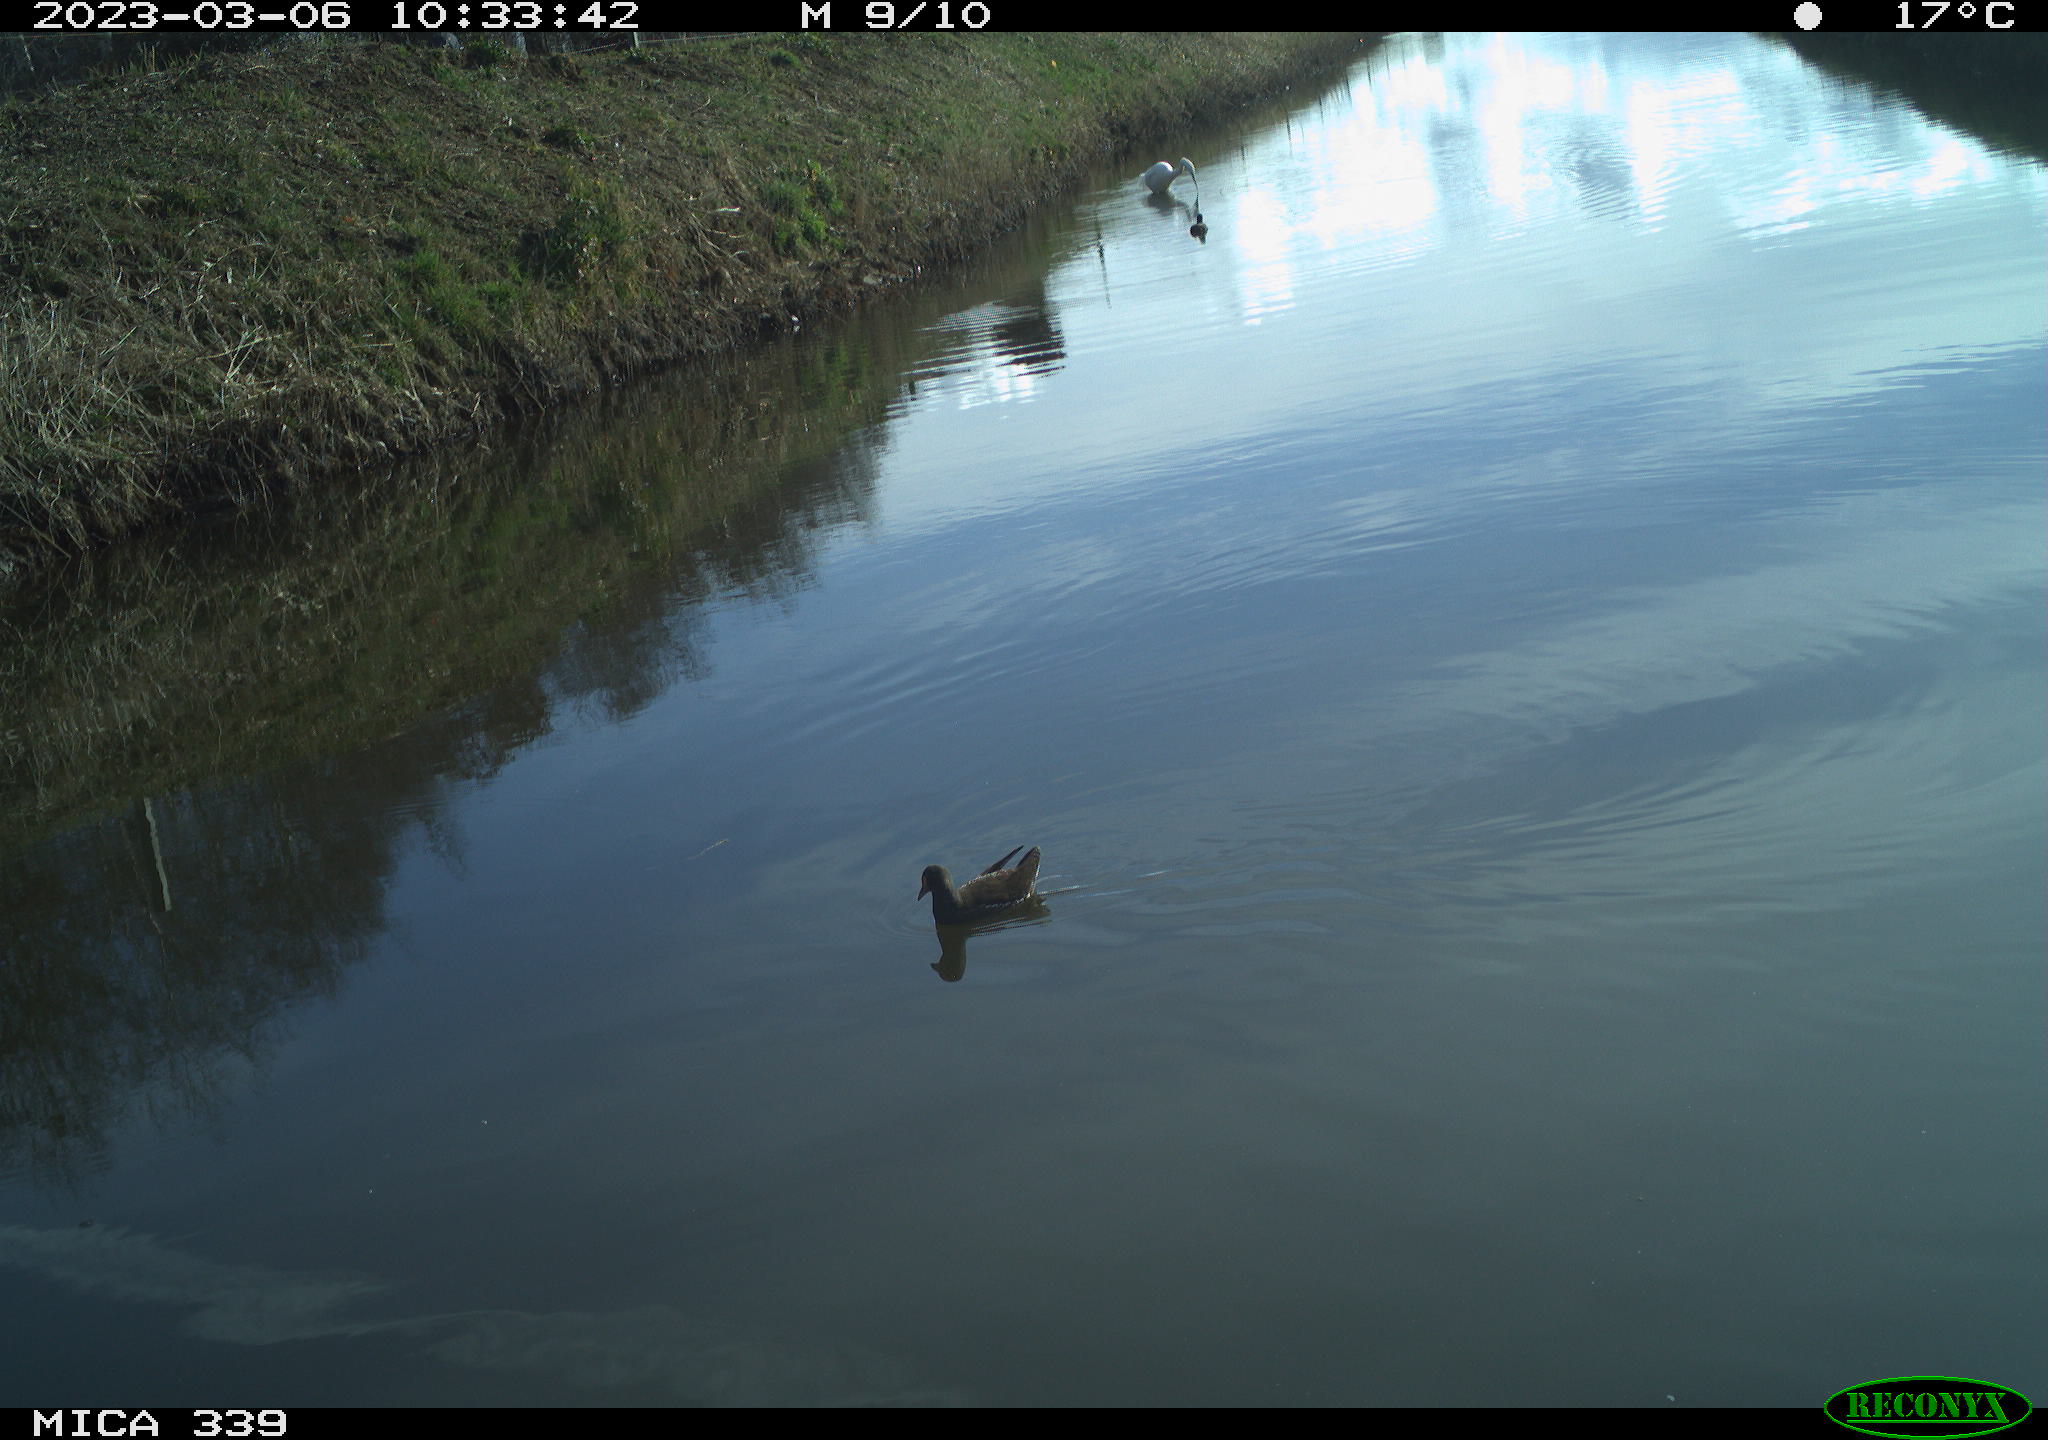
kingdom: Animalia
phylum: Chordata
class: Aves
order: Gruiformes
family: Rallidae
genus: Gallinula
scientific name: Gallinula chloropus
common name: Common moorhen
